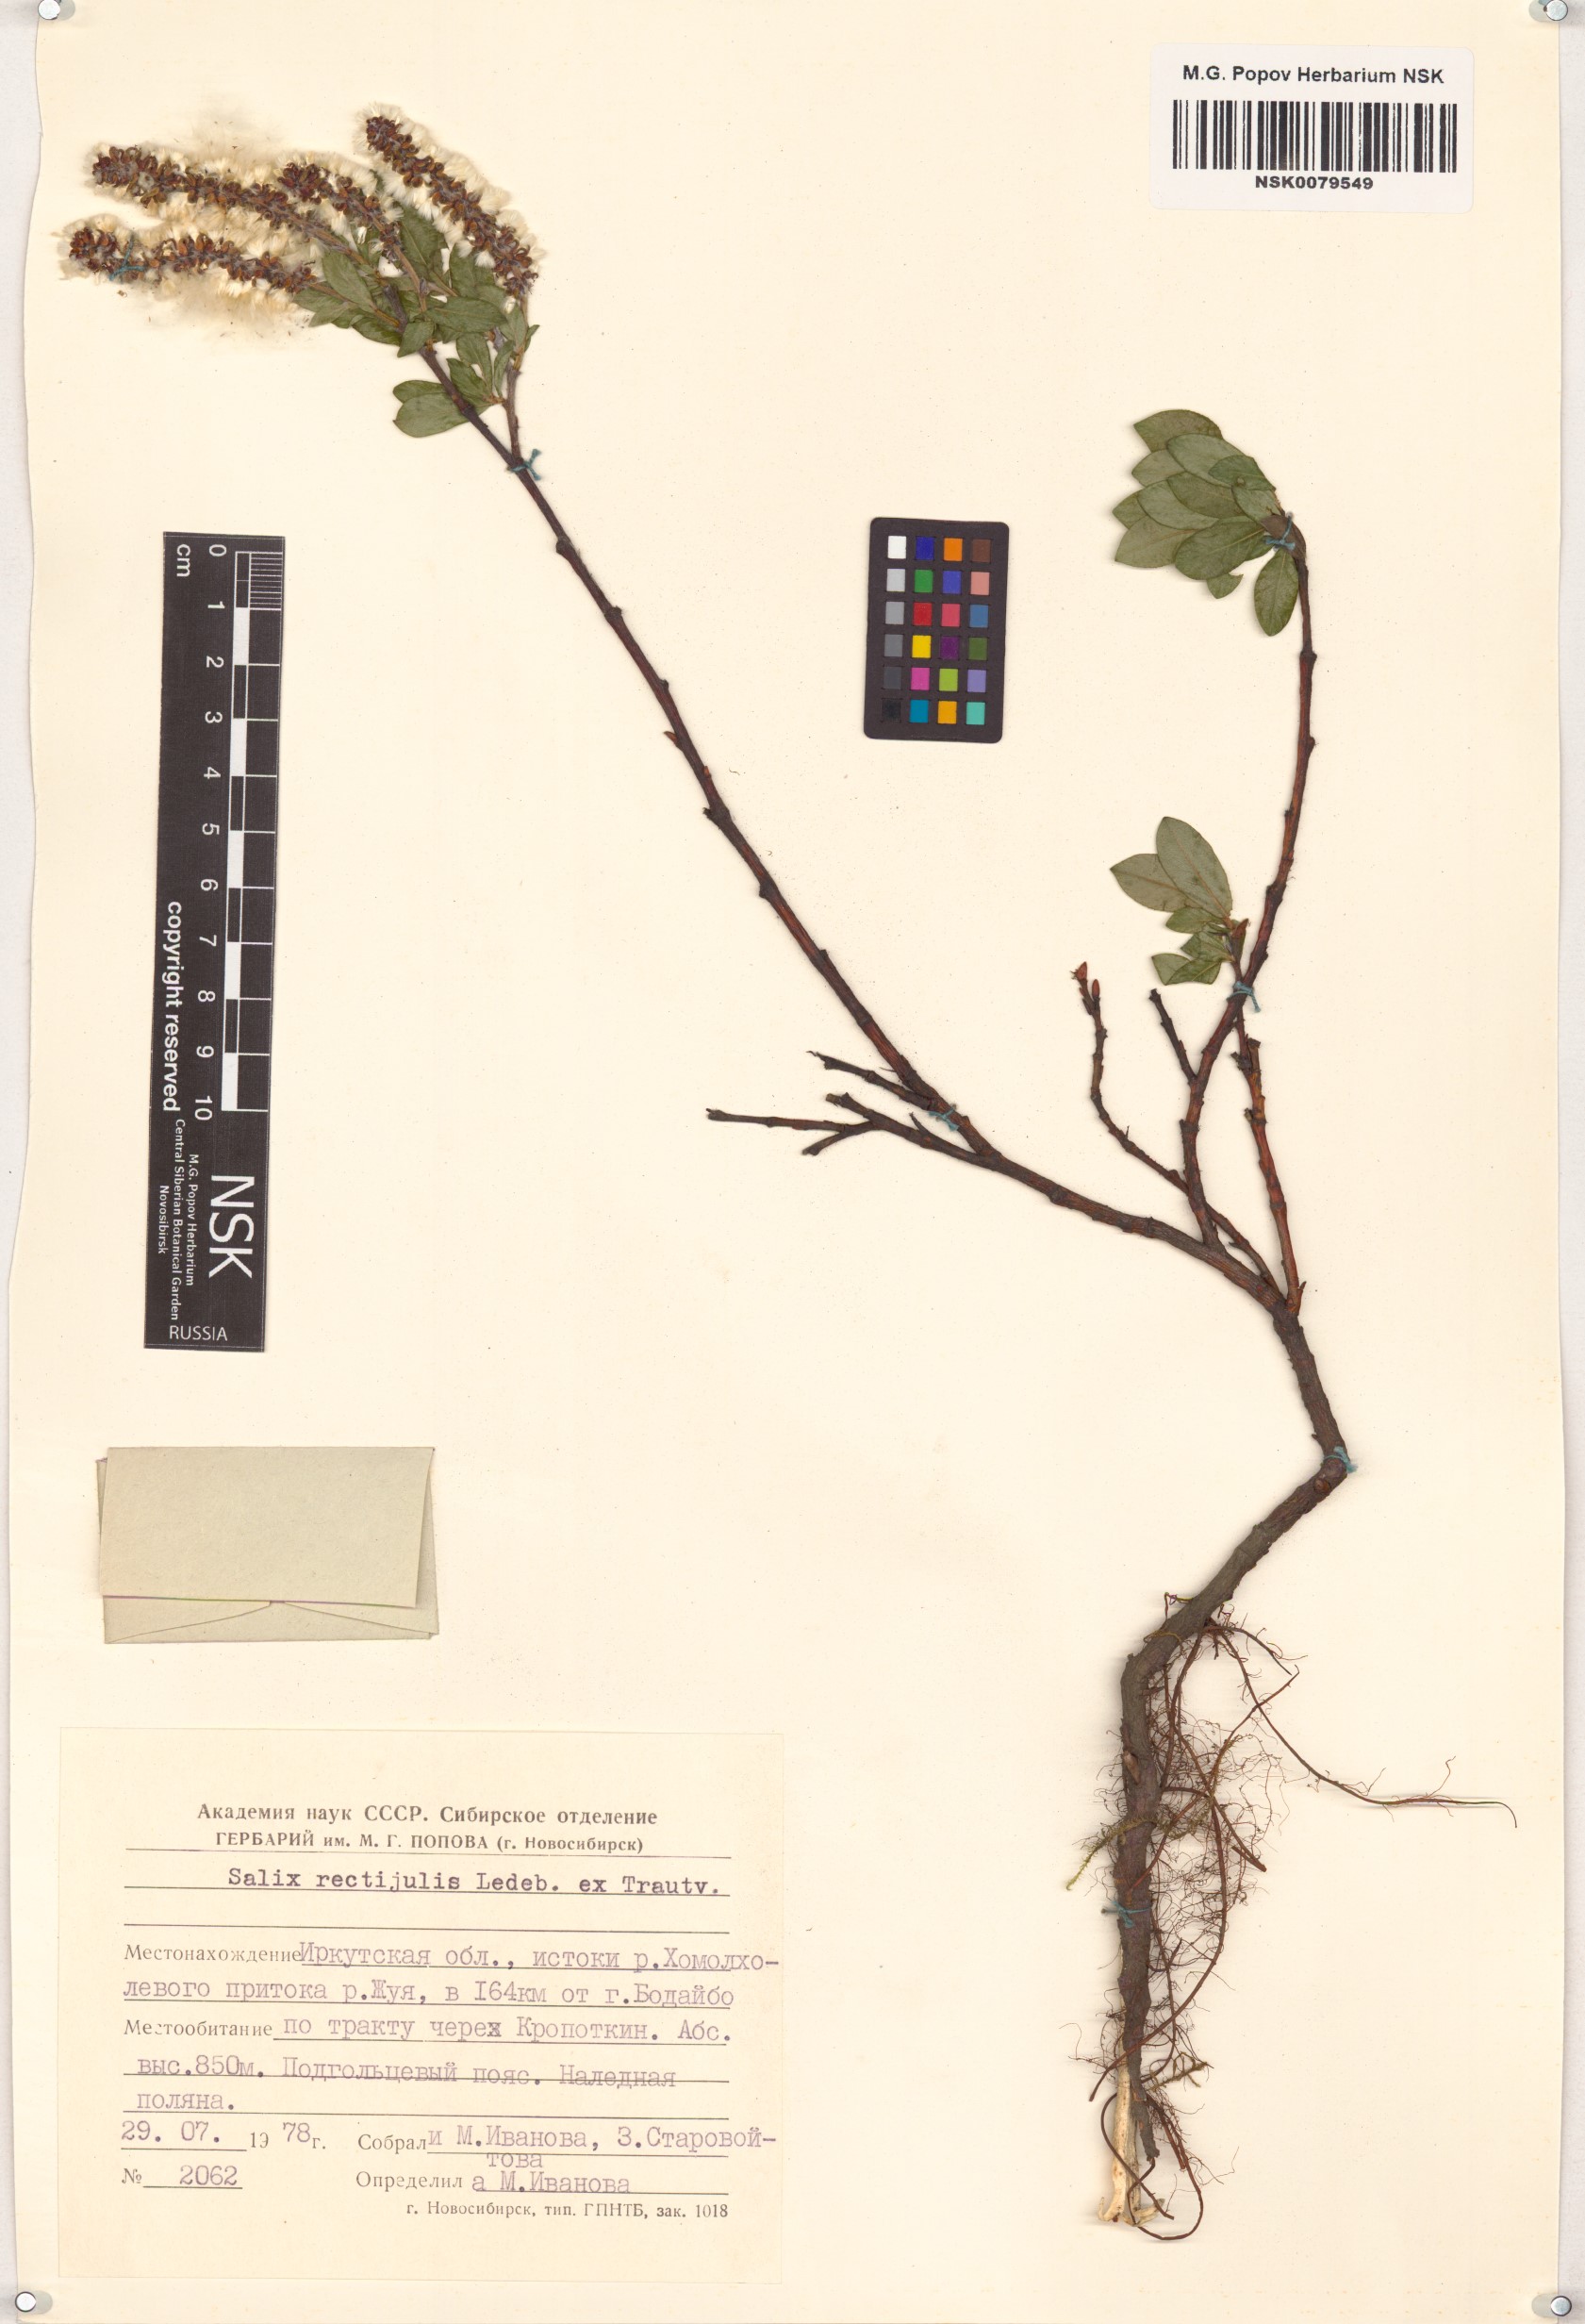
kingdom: Plantae
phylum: Tracheophyta
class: Magnoliopsida
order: Malpighiales
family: Salicaceae
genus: Salix
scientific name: Salix rectijulis
